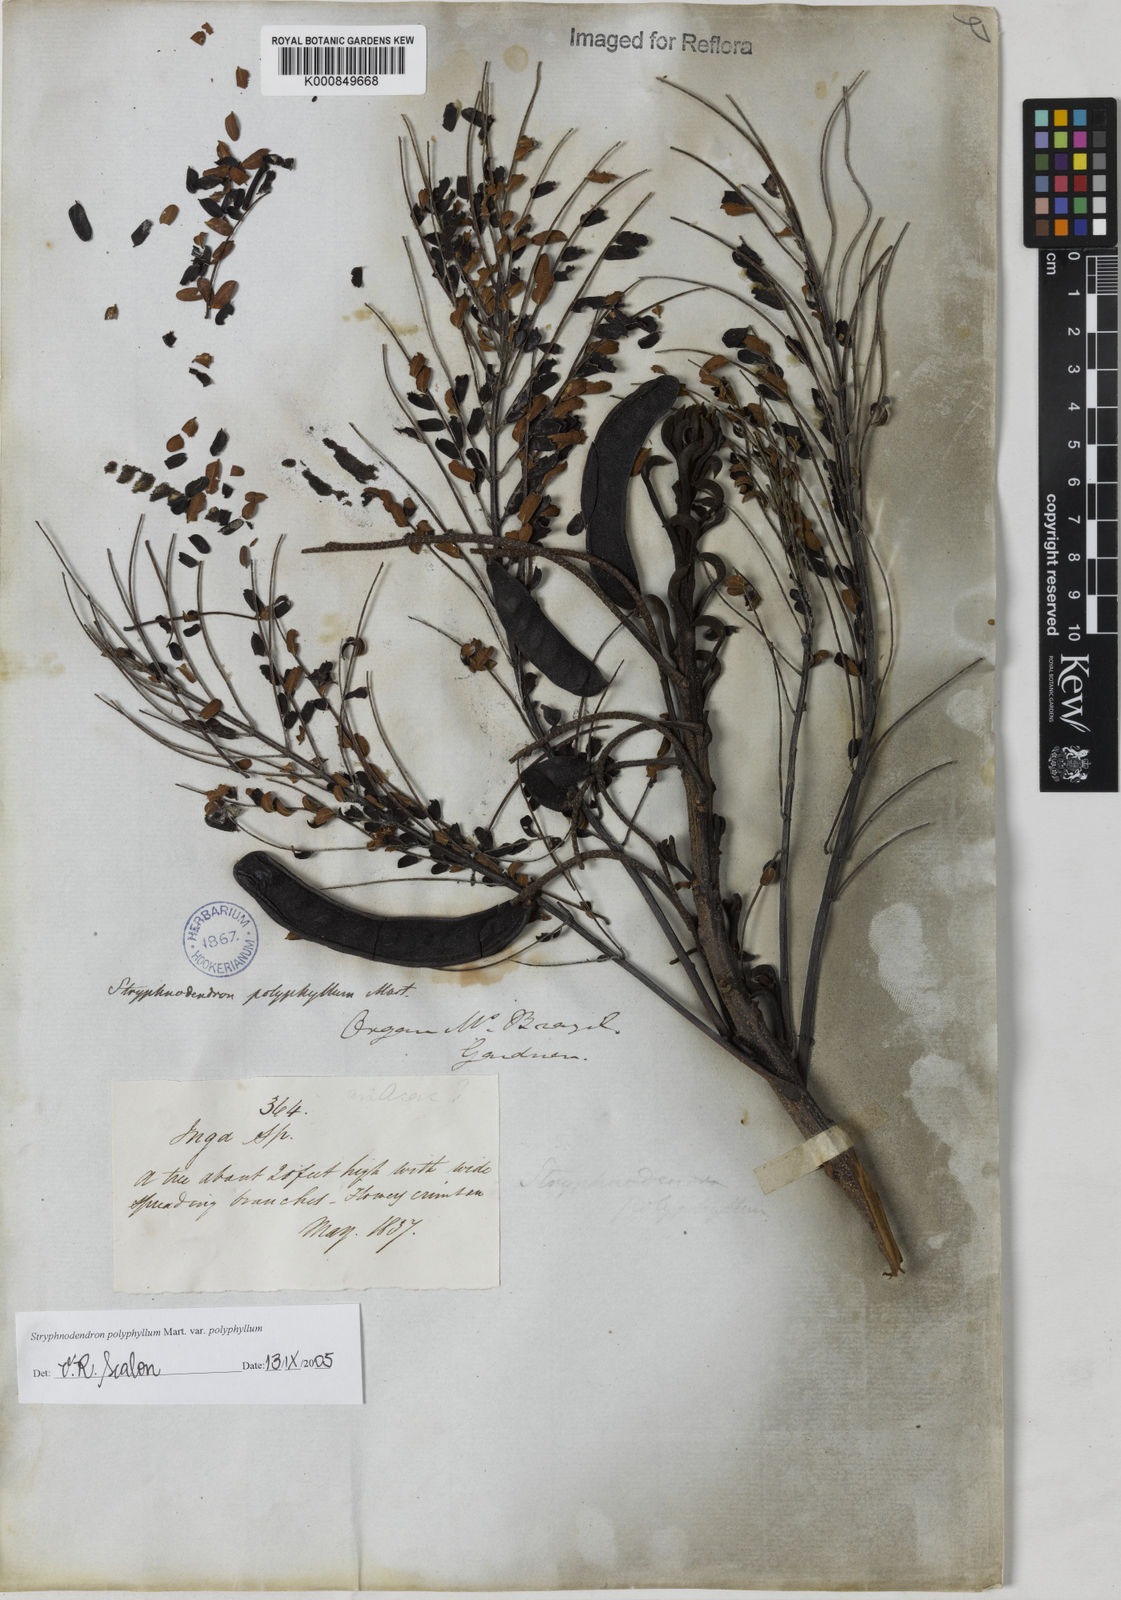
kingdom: Plantae
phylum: Tracheophyta
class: Magnoliopsida
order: Fabales
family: Fabaceae
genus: Stryphnodendron
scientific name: Stryphnodendron polyphyllum
